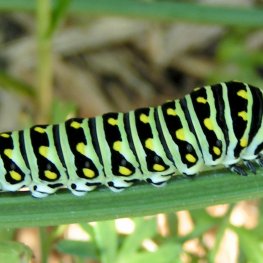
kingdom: Animalia
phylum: Arthropoda
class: Insecta
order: Lepidoptera
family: Papilionidae
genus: Papilio
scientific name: Papilio polyxenes
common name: Black Swallowtail
